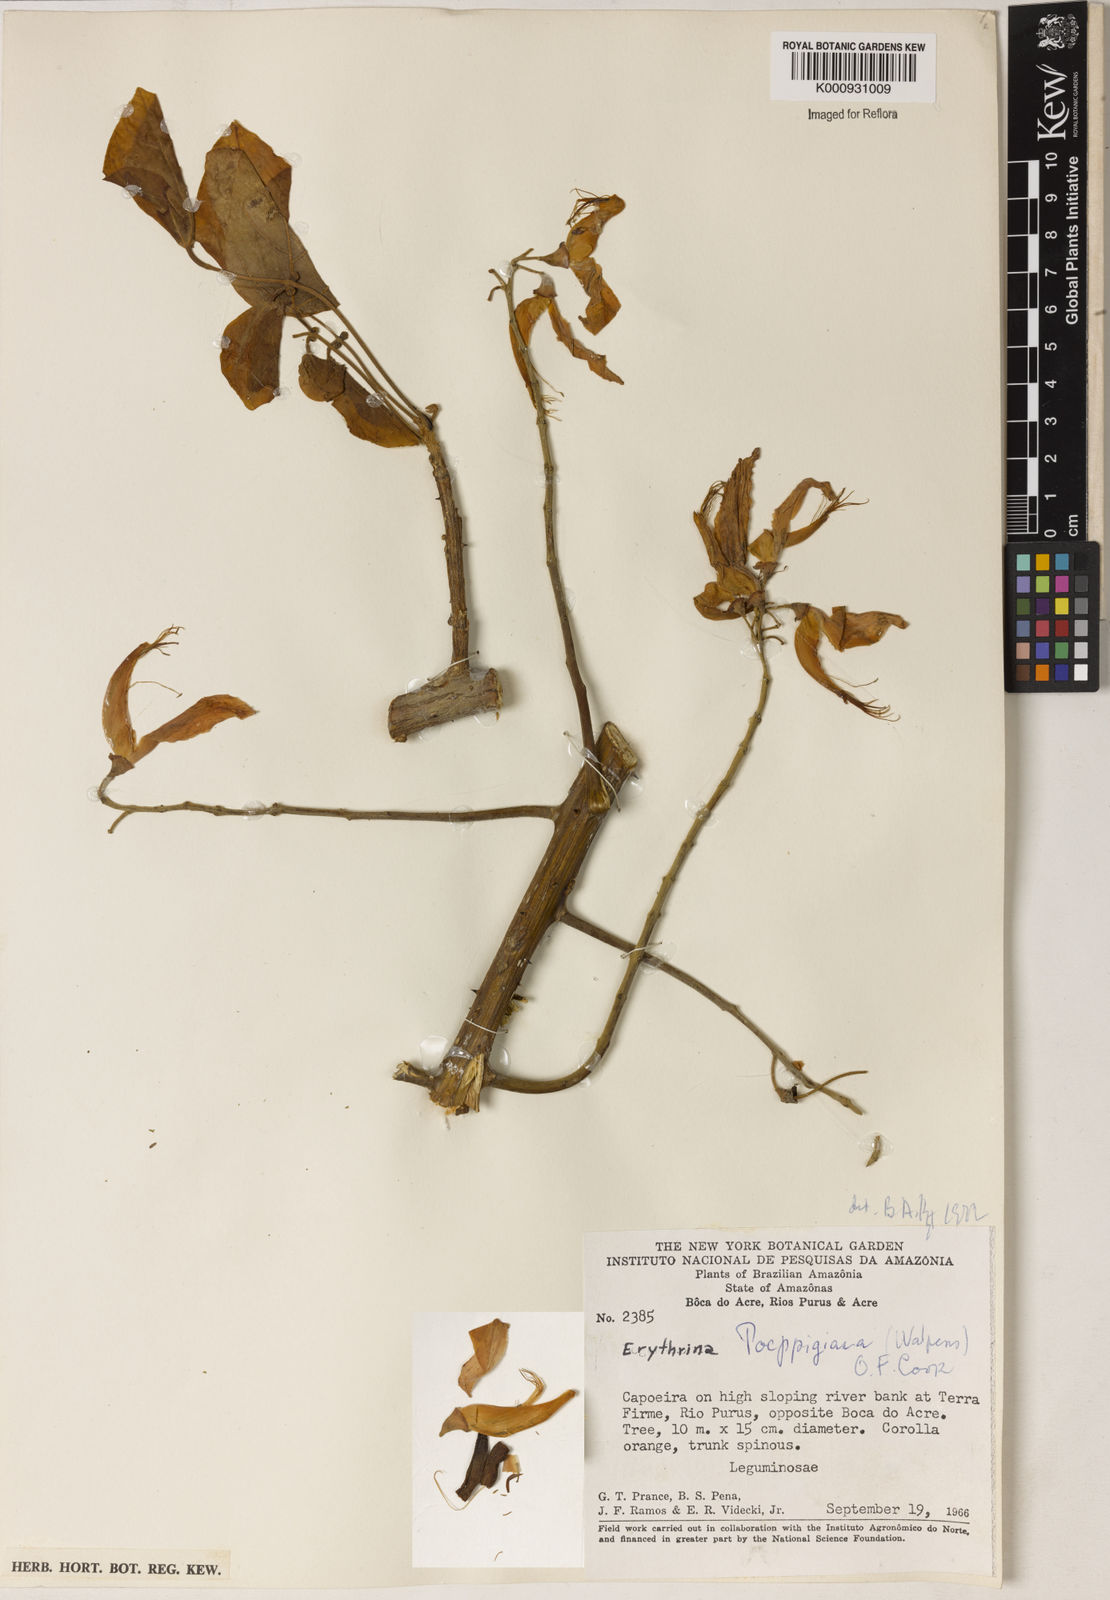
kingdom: Plantae
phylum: Tracheophyta
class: Magnoliopsida
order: Fabales
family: Fabaceae
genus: Erythrina
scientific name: Erythrina poeppigiana
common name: Coral tree
